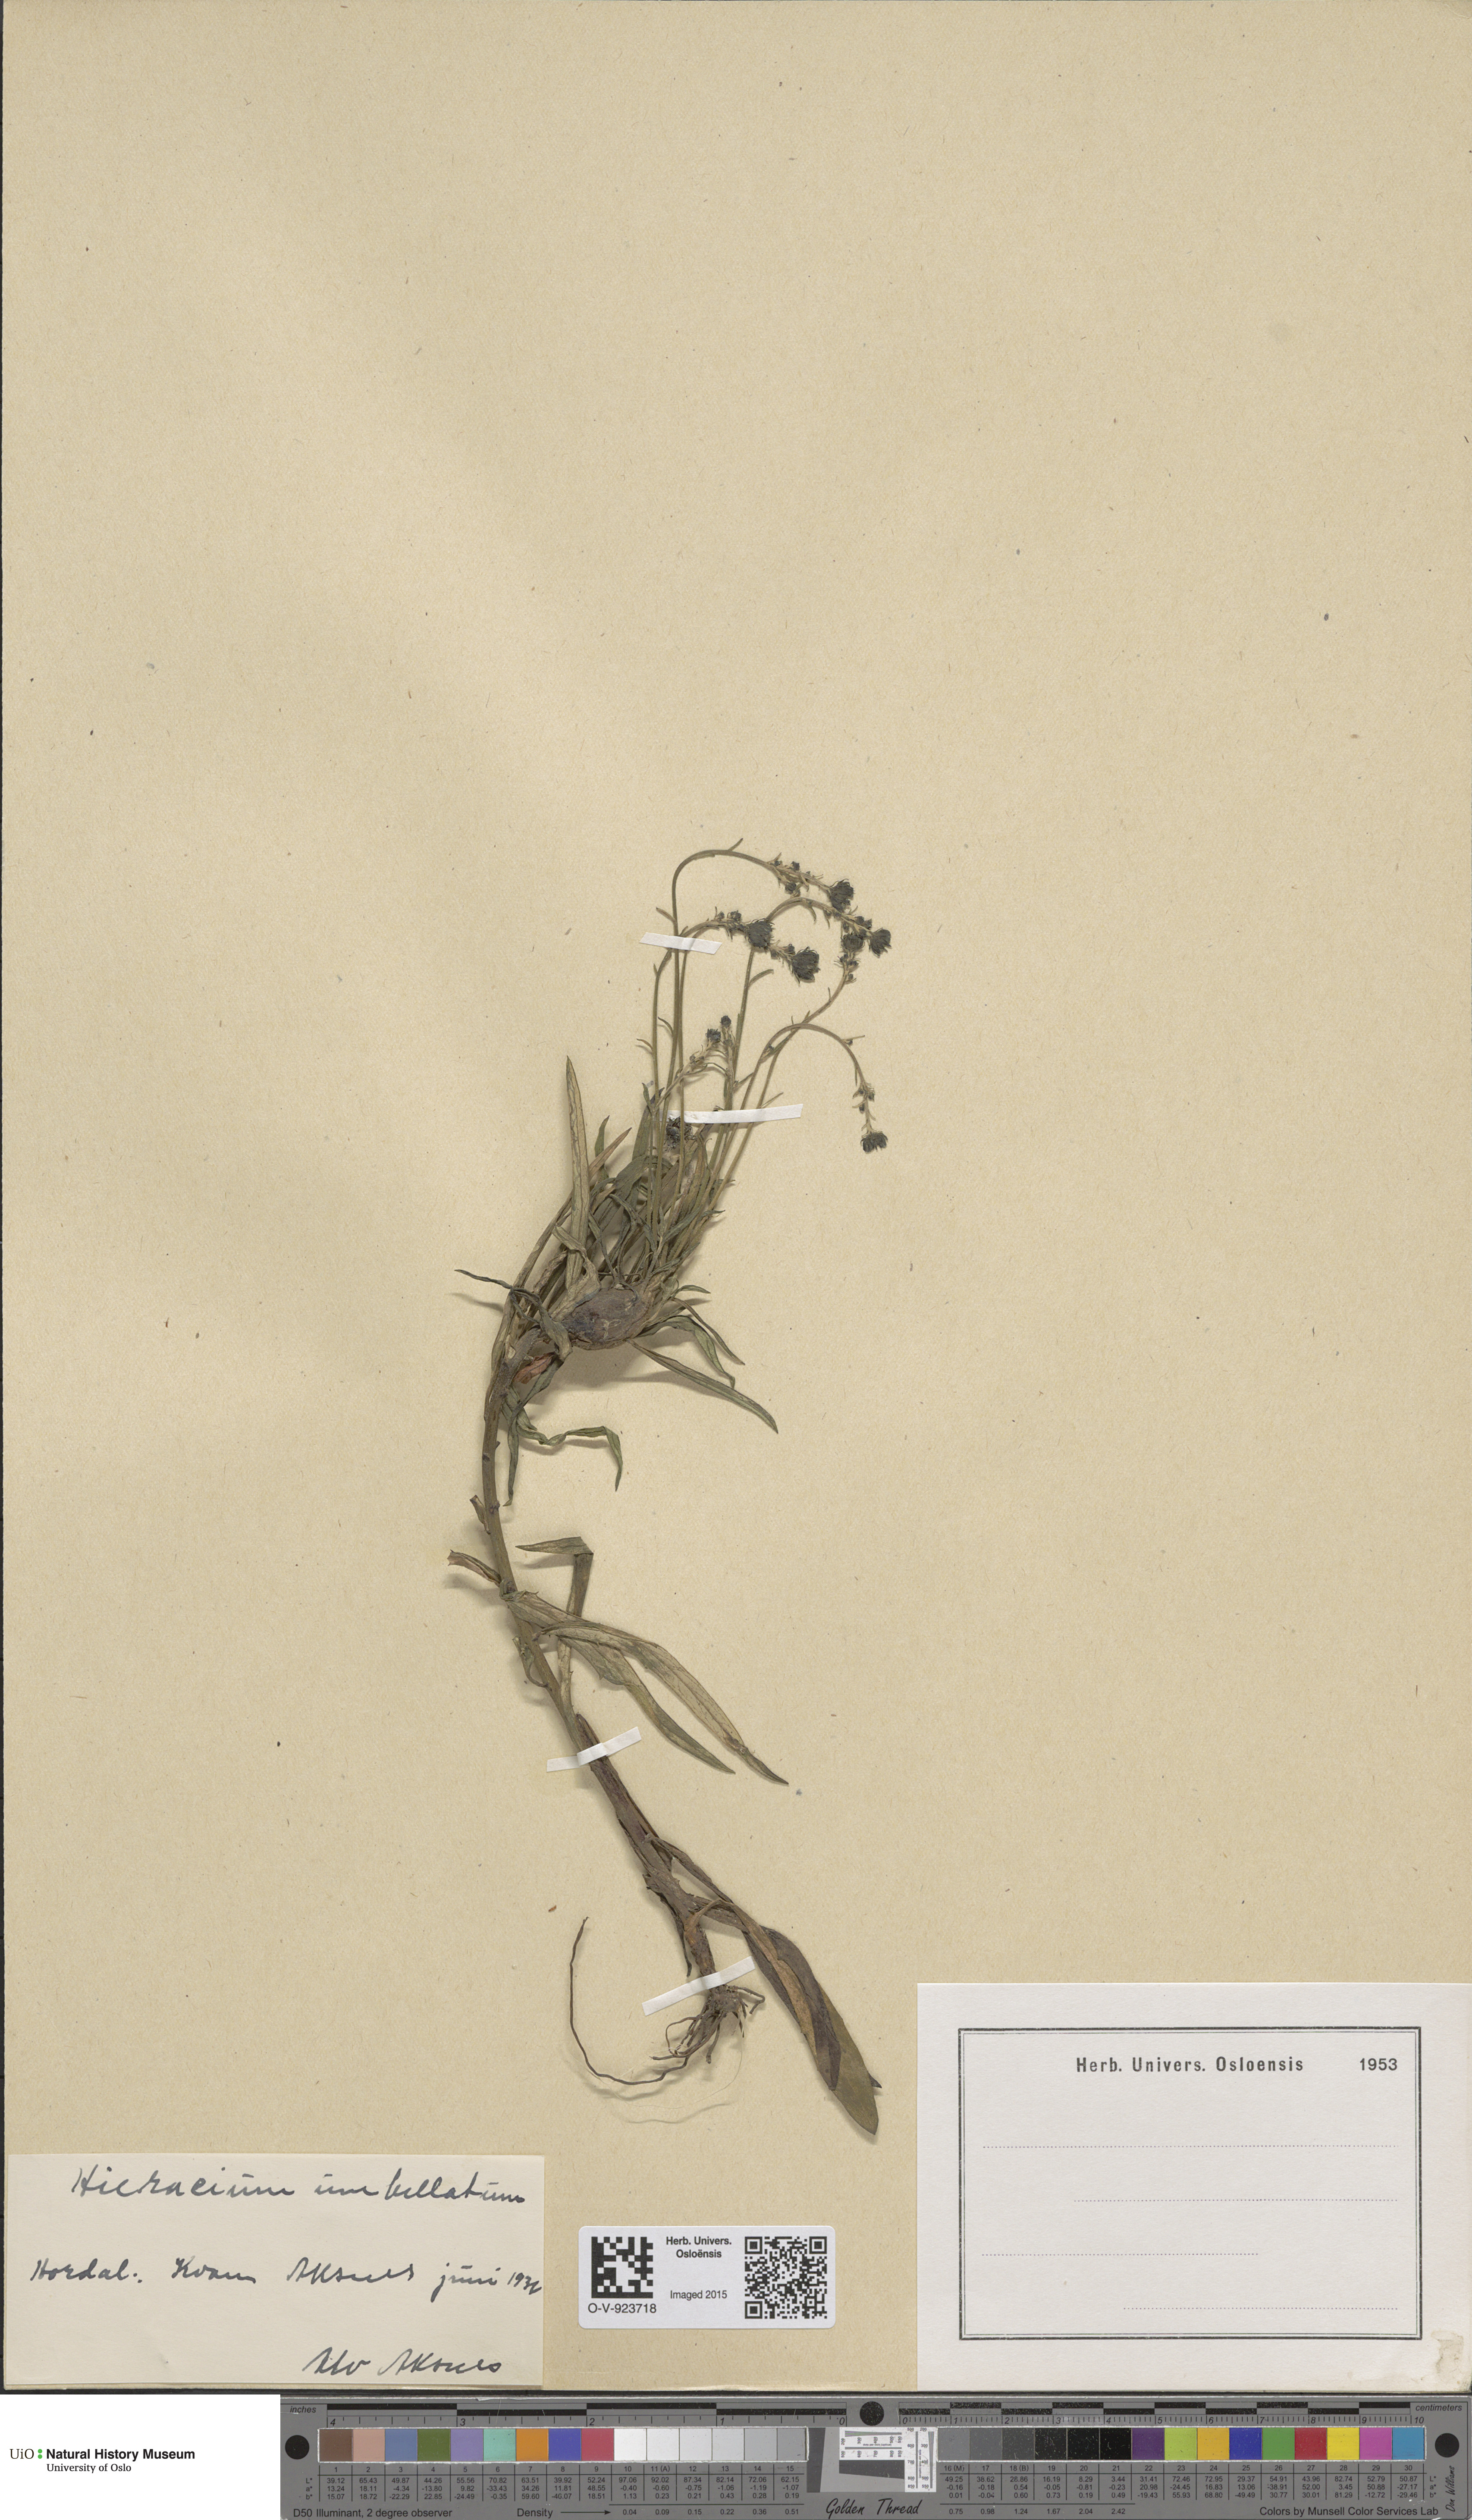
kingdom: Plantae
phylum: Tracheophyta
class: Magnoliopsida
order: Asterales
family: Asteraceae
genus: Hieracium
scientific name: Hieracium umbellatum
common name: Northern hawkweed
